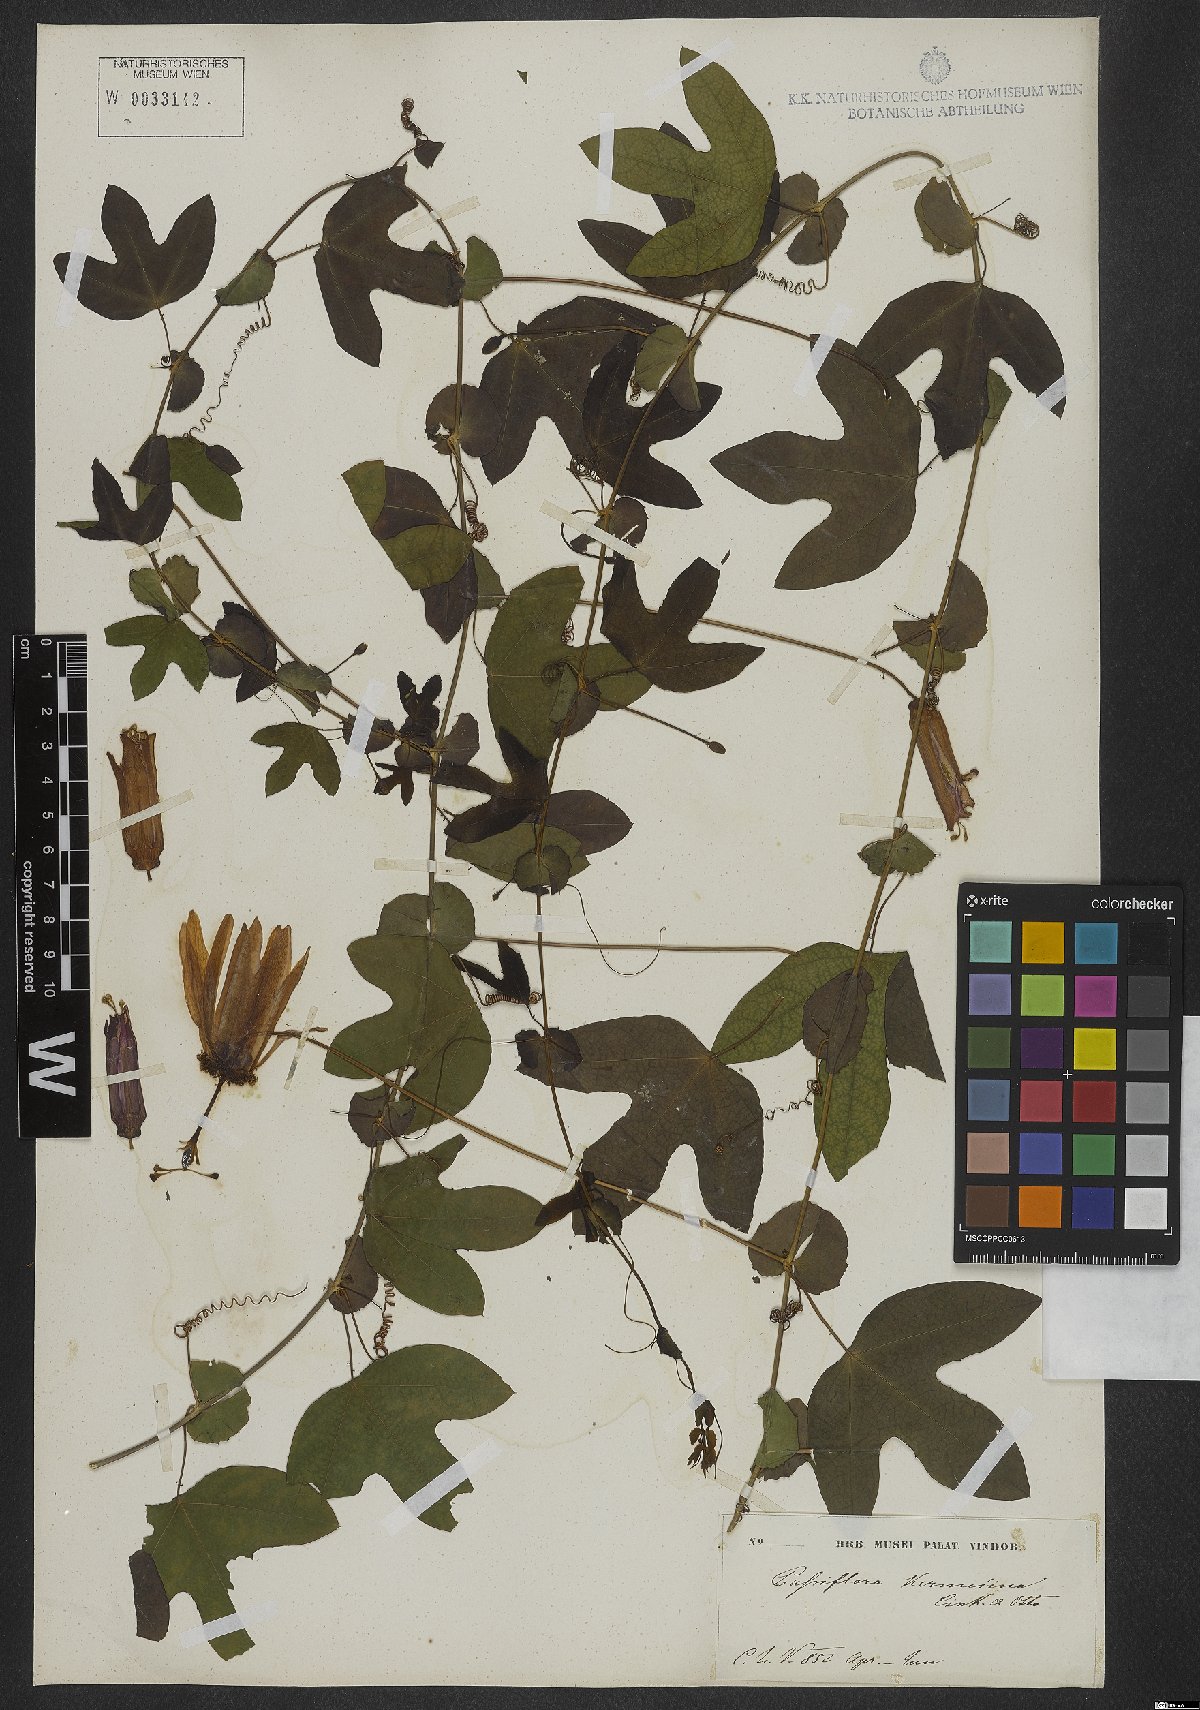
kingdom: Plantae
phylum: Tracheophyta
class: Magnoliopsida
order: Malpighiales
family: Passifloraceae
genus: Passiflora
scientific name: Passiflora kermesina
